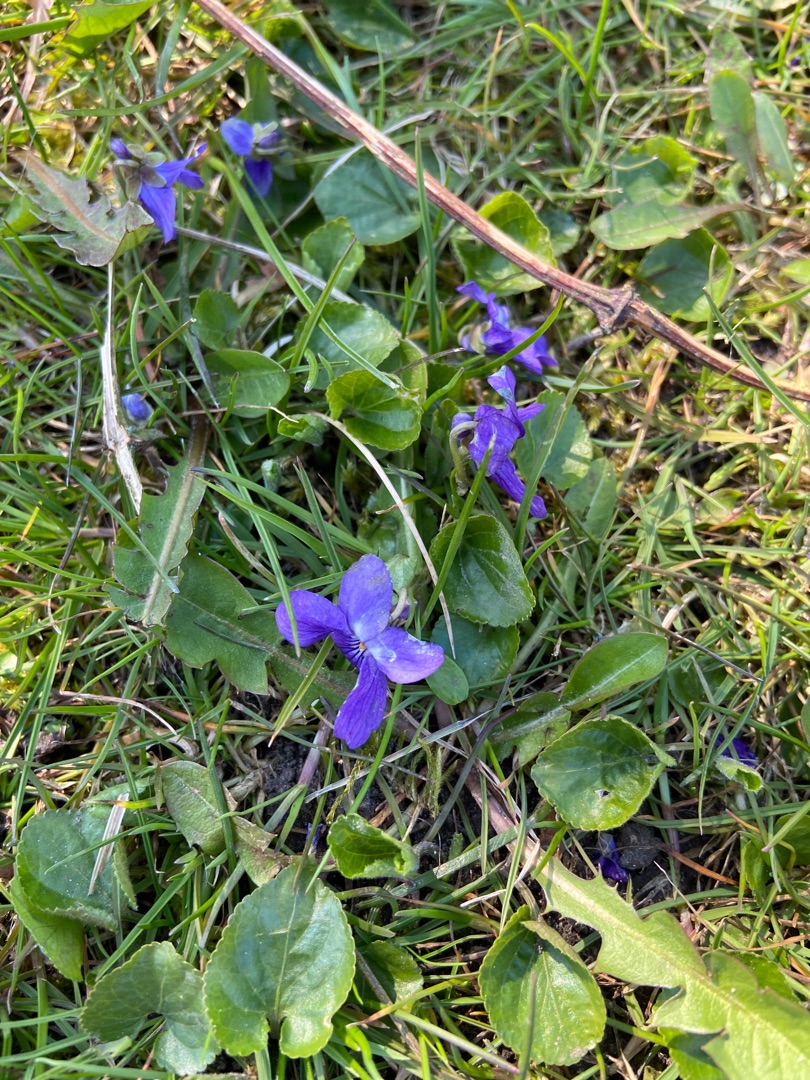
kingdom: Plantae
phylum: Tracheophyta
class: Magnoliopsida
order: Malpighiales
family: Violaceae
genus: Viola
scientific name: Viola odorata
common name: Marts-viol
